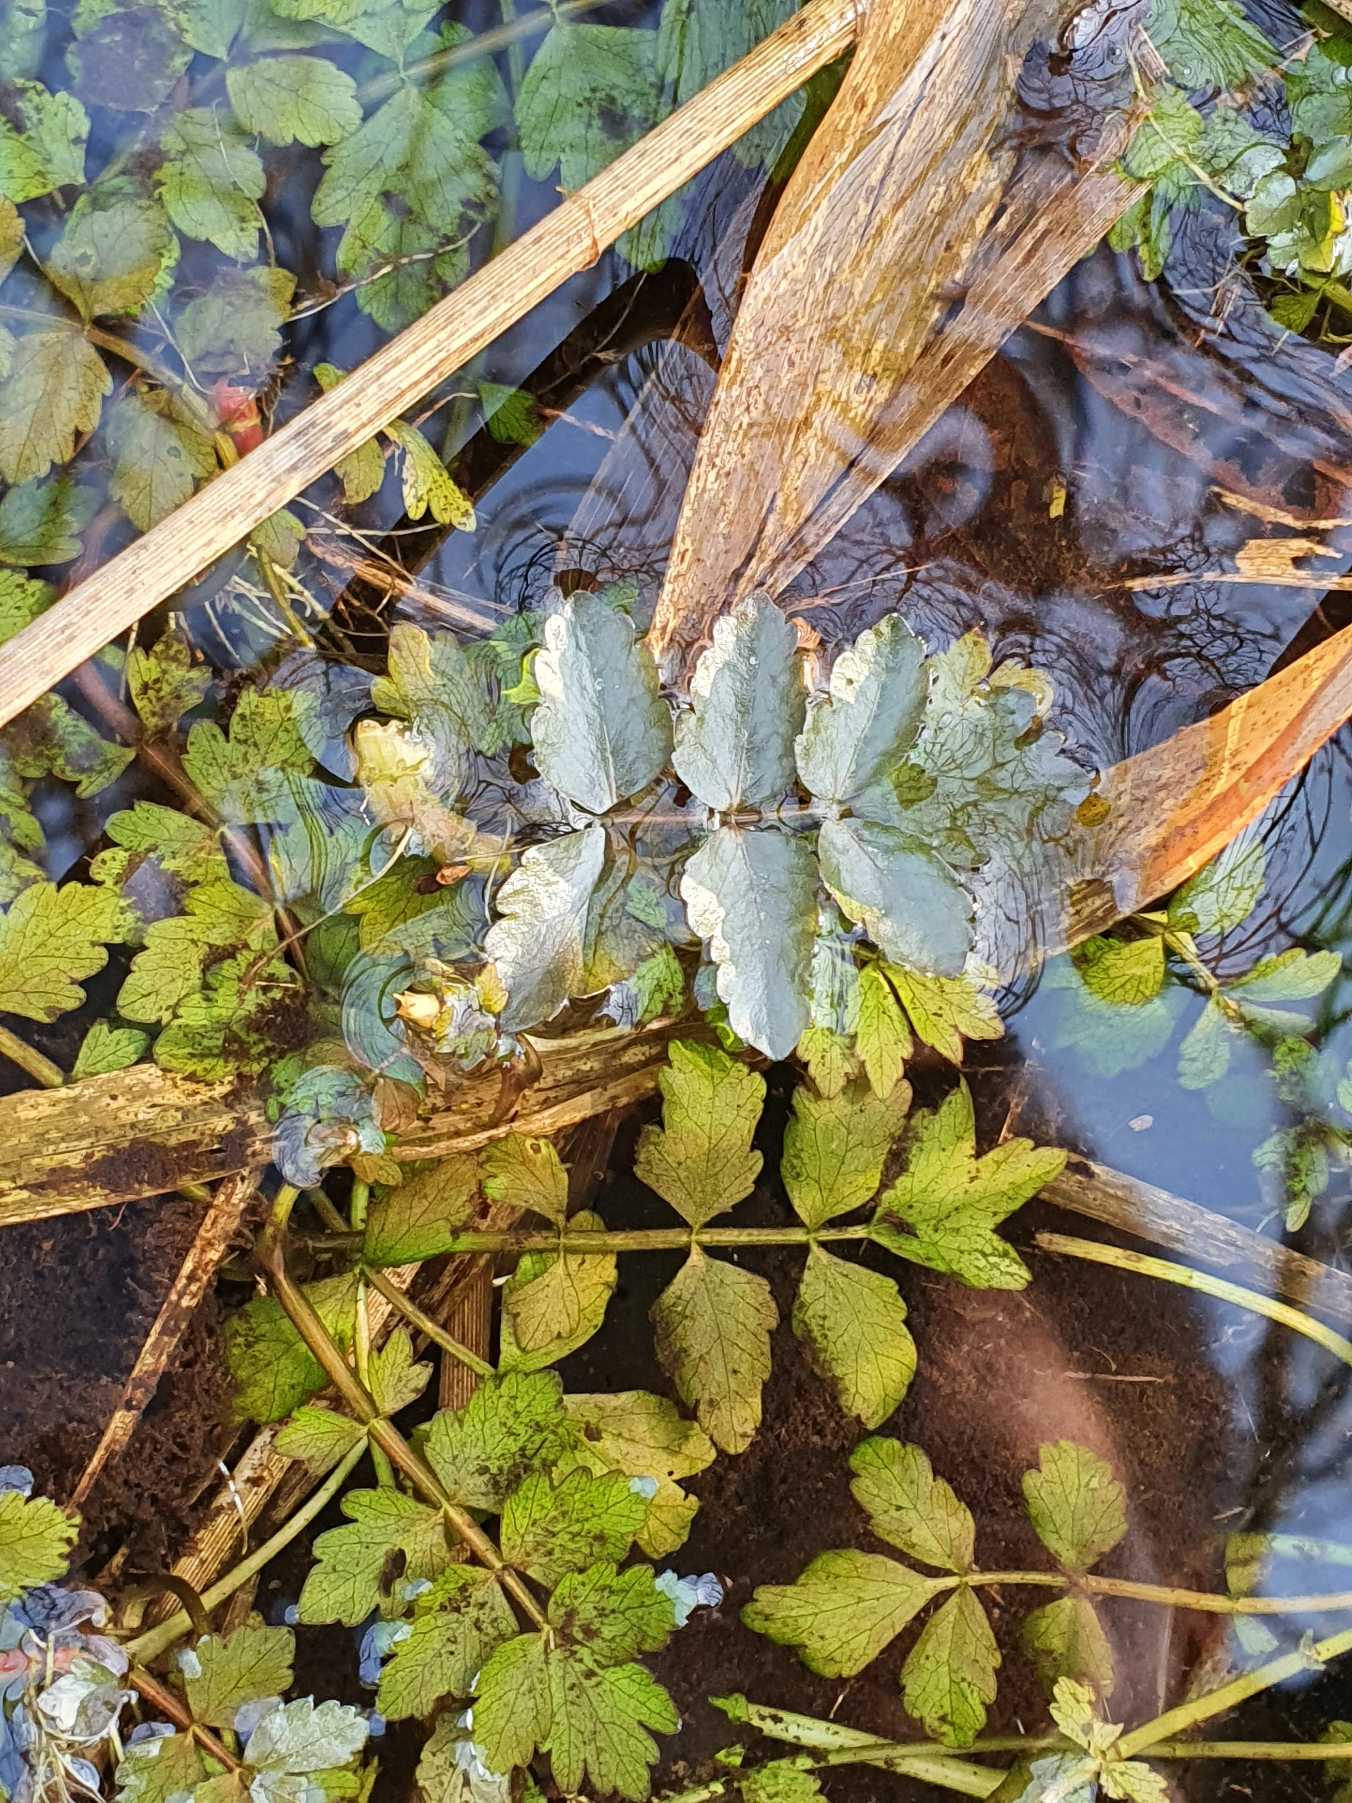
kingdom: Plantae
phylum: Tracheophyta
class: Magnoliopsida
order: Apiales
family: Apiaceae
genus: Berula
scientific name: Berula erecta
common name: Sideskærm
